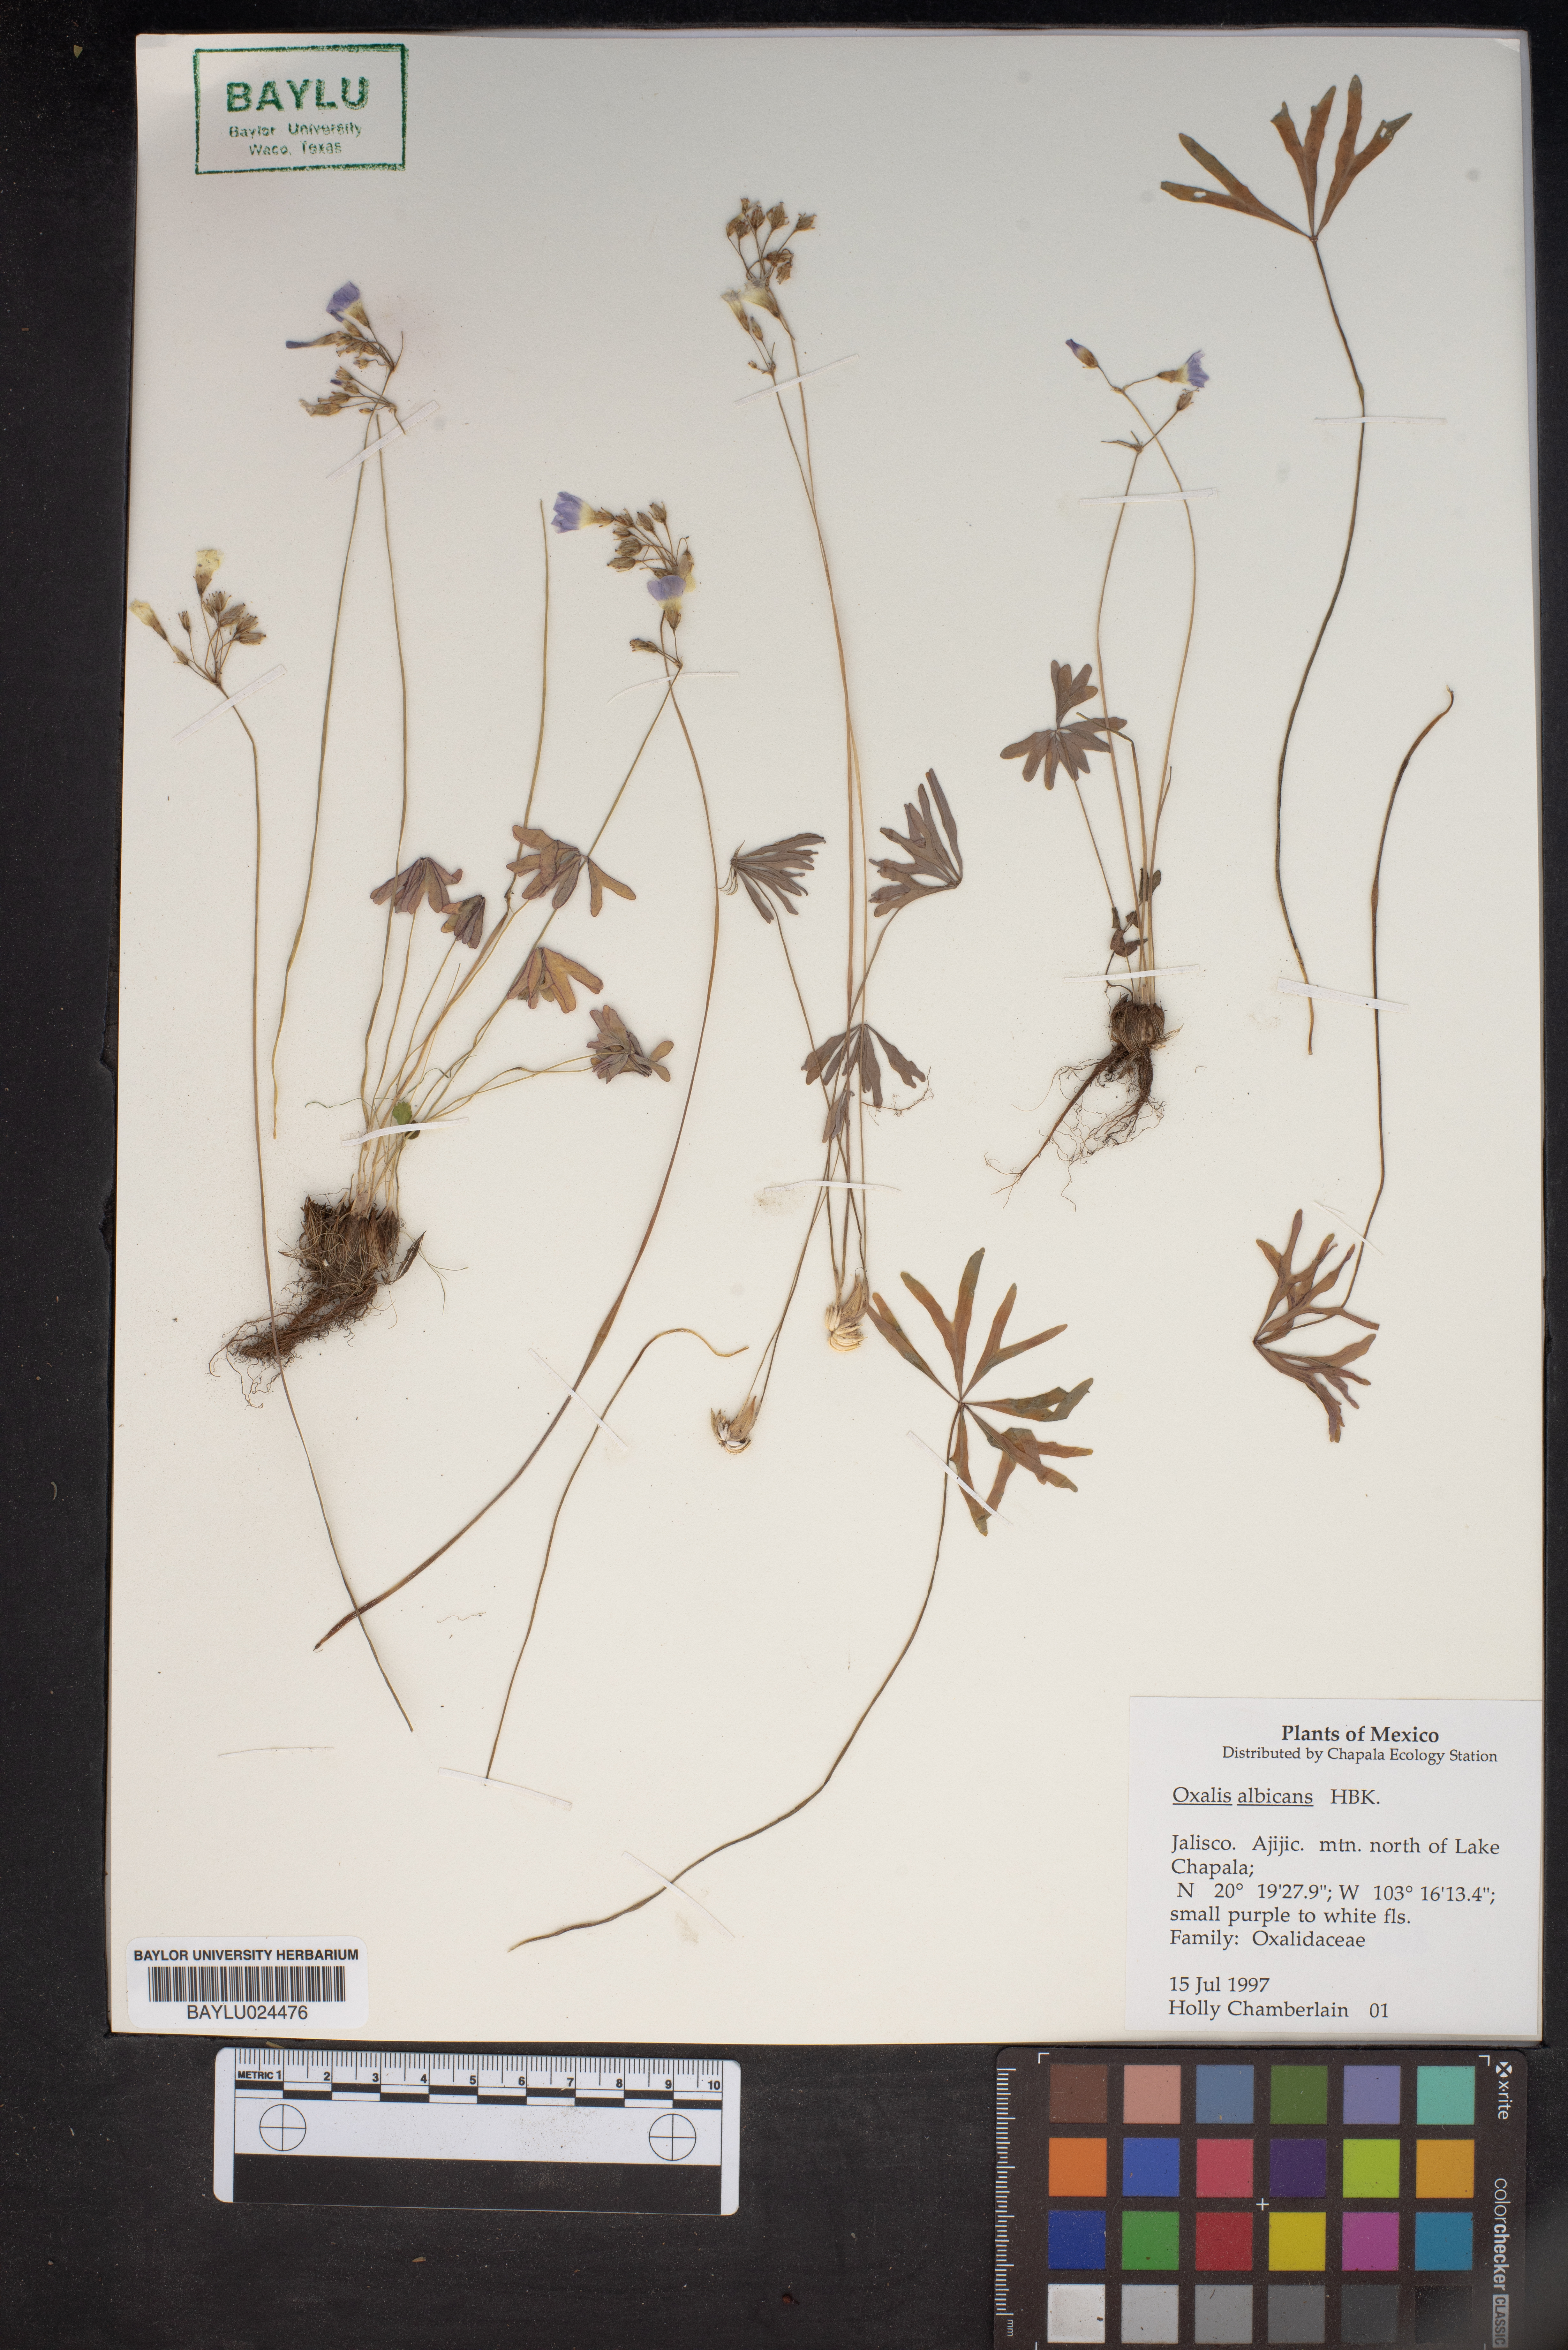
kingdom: Plantae
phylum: Tracheophyta
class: Magnoliopsida
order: Oxalidales
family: Oxalidaceae
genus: Oxalis
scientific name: Oxalis albicans
